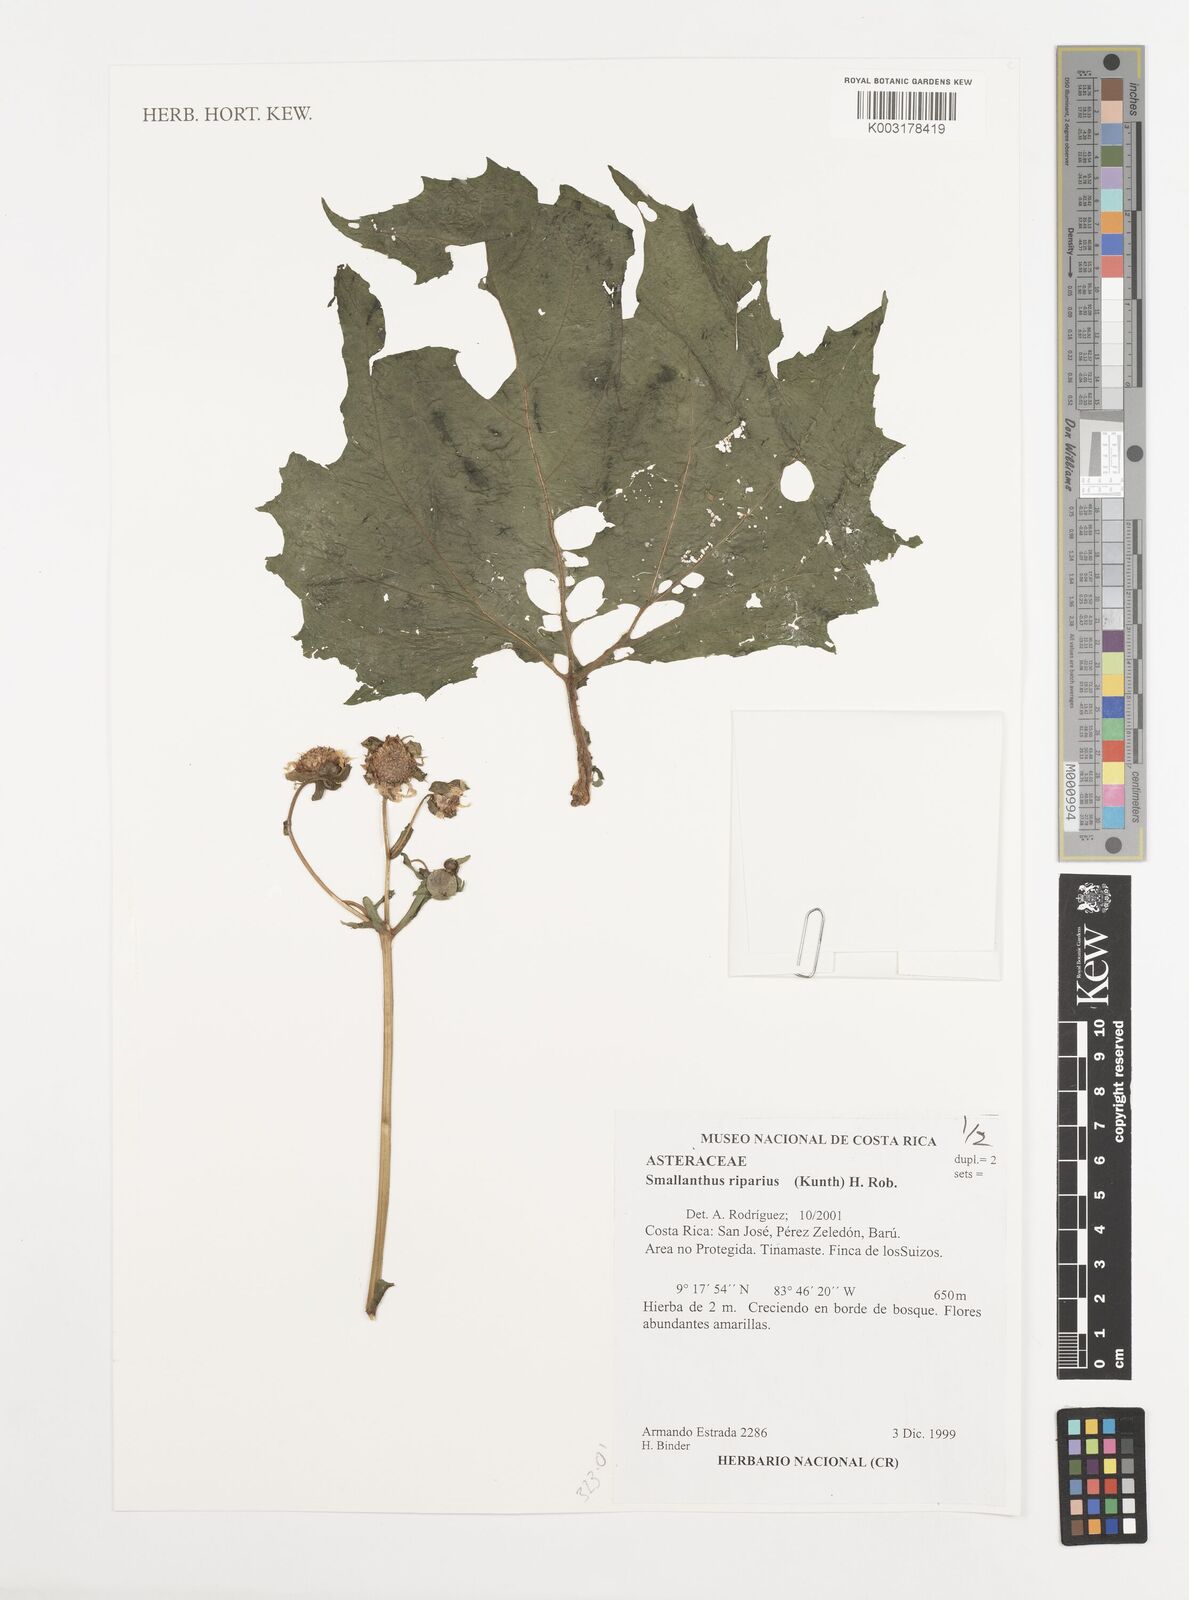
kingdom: Plantae
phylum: Tracheophyta
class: Magnoliopsida
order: Asterales
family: Asteraceae
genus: Smallanthus
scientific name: Smallanthus riparius
